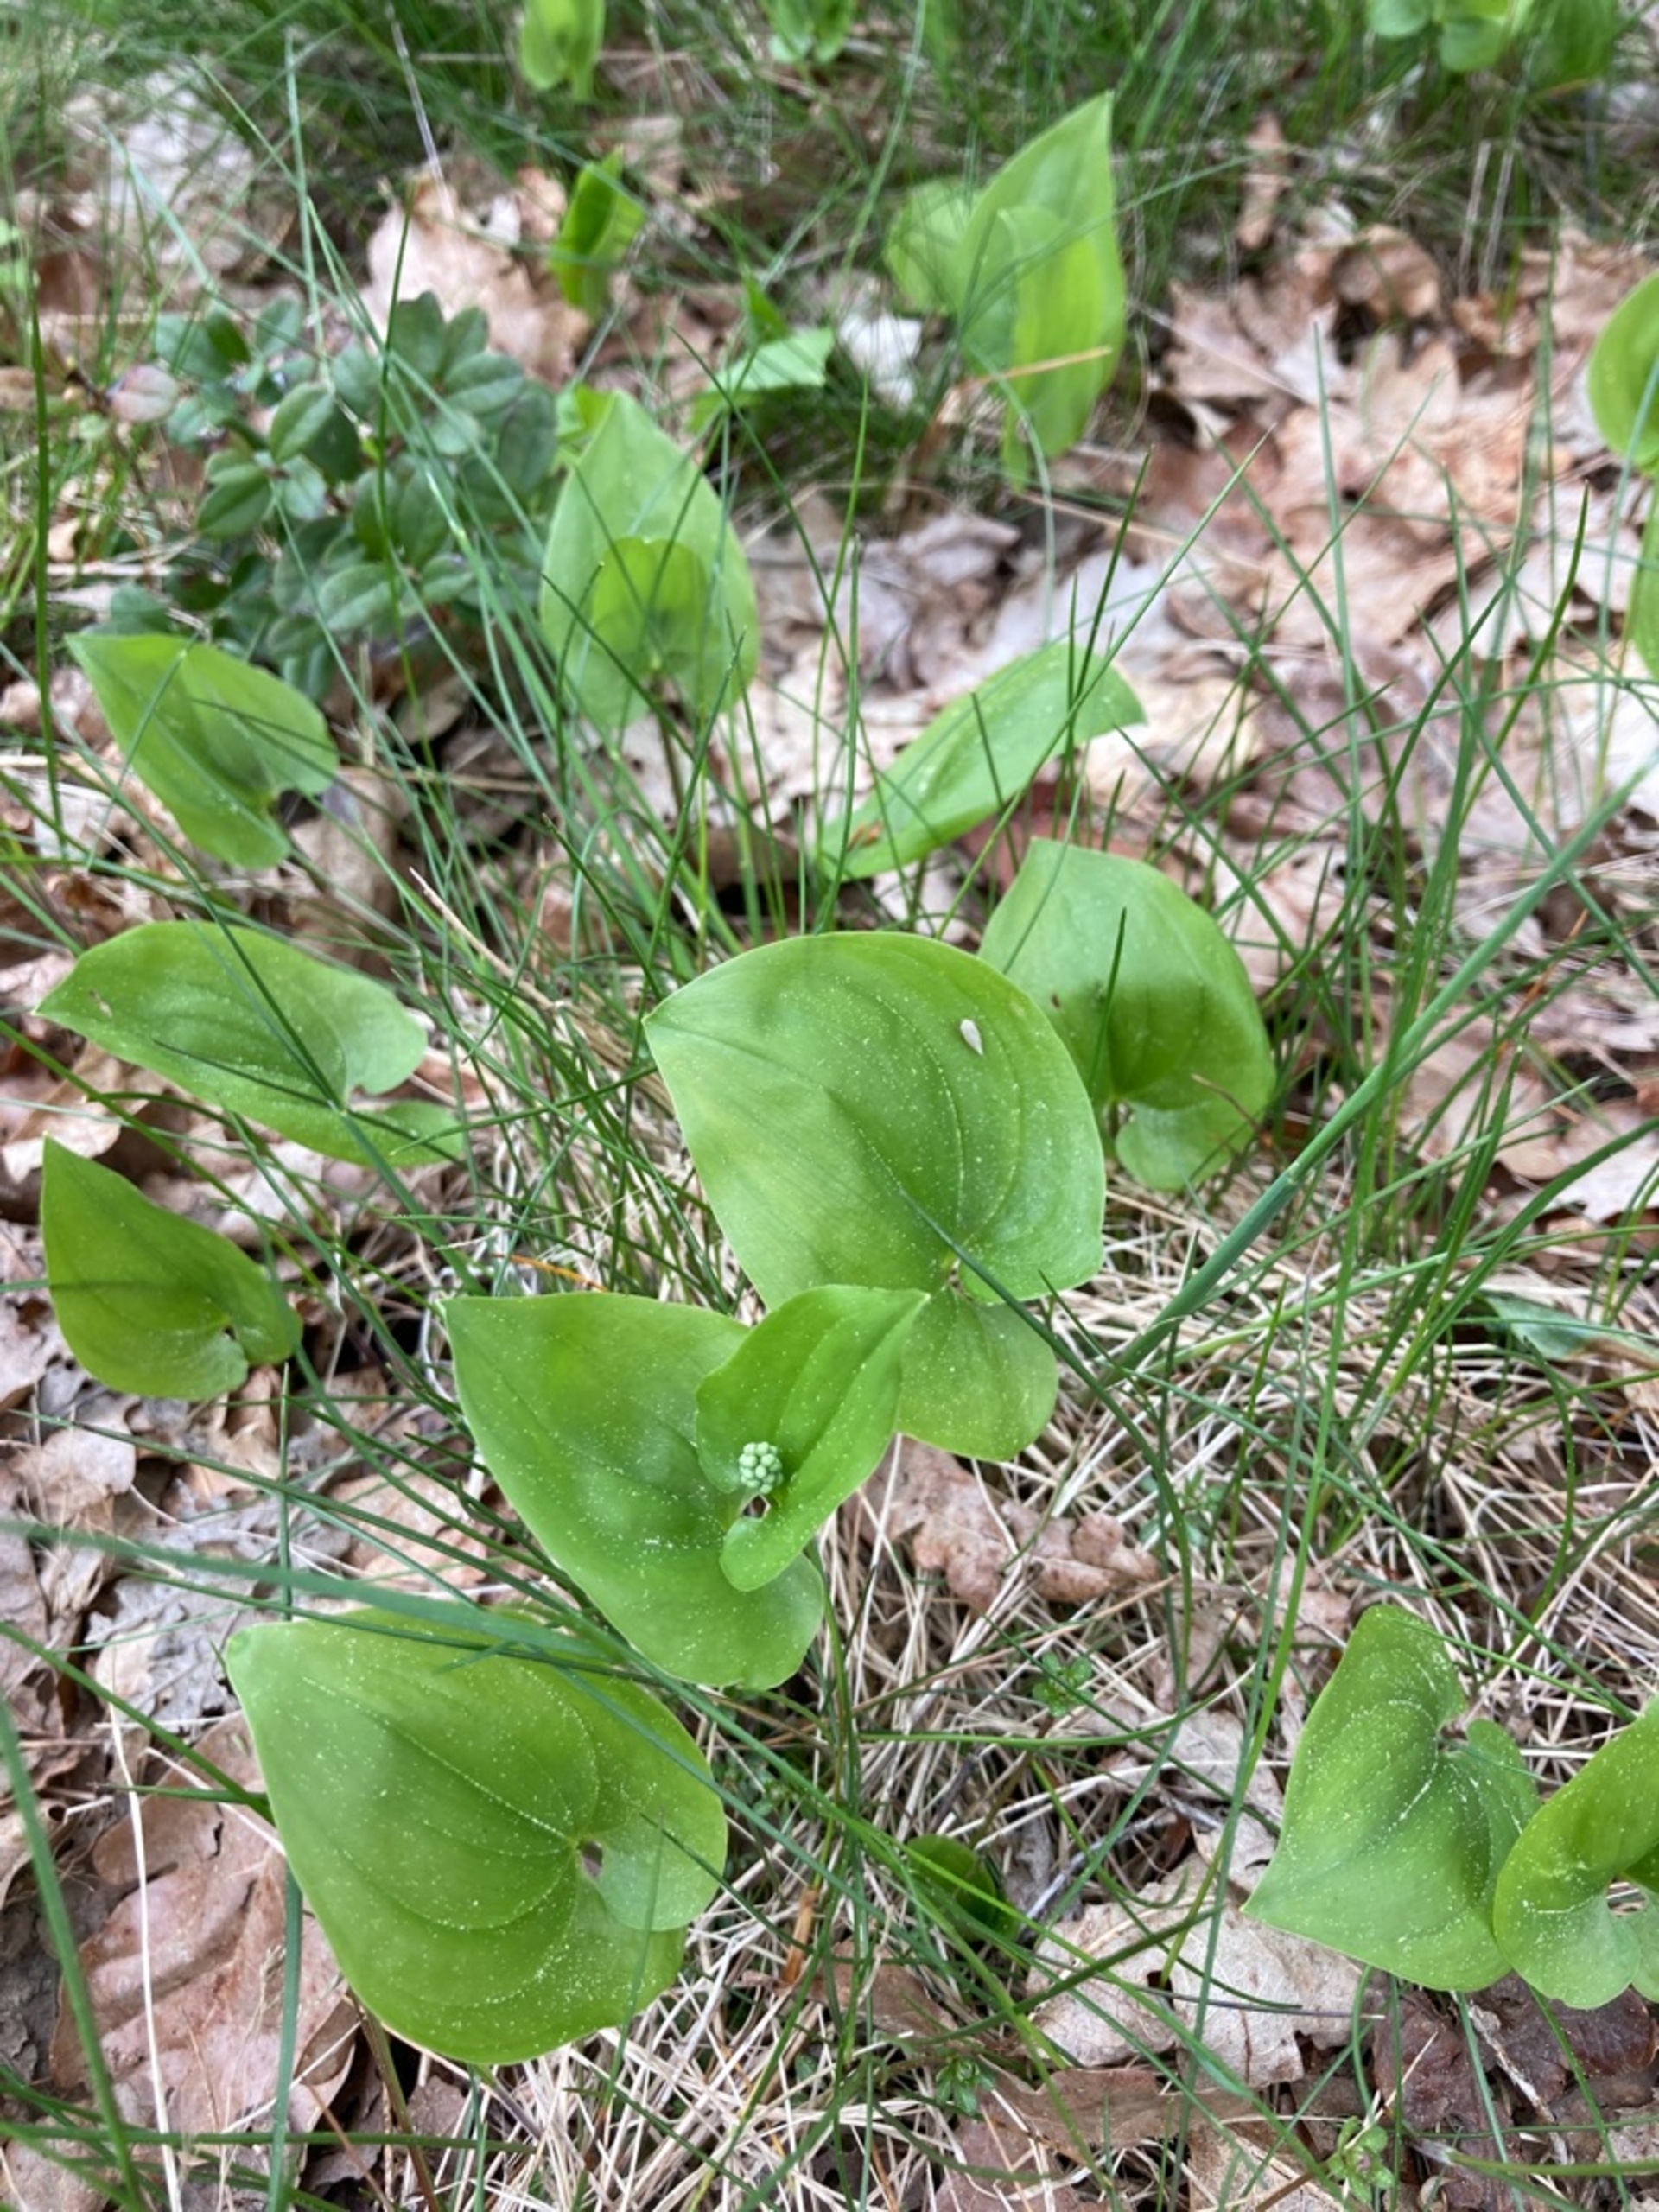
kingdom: Plantae
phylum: Tracheophyta
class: Liliopsida
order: Asparagales
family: Asparagaceae
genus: Maianthemum
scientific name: Maianthemum bifolium
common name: Majblomst
